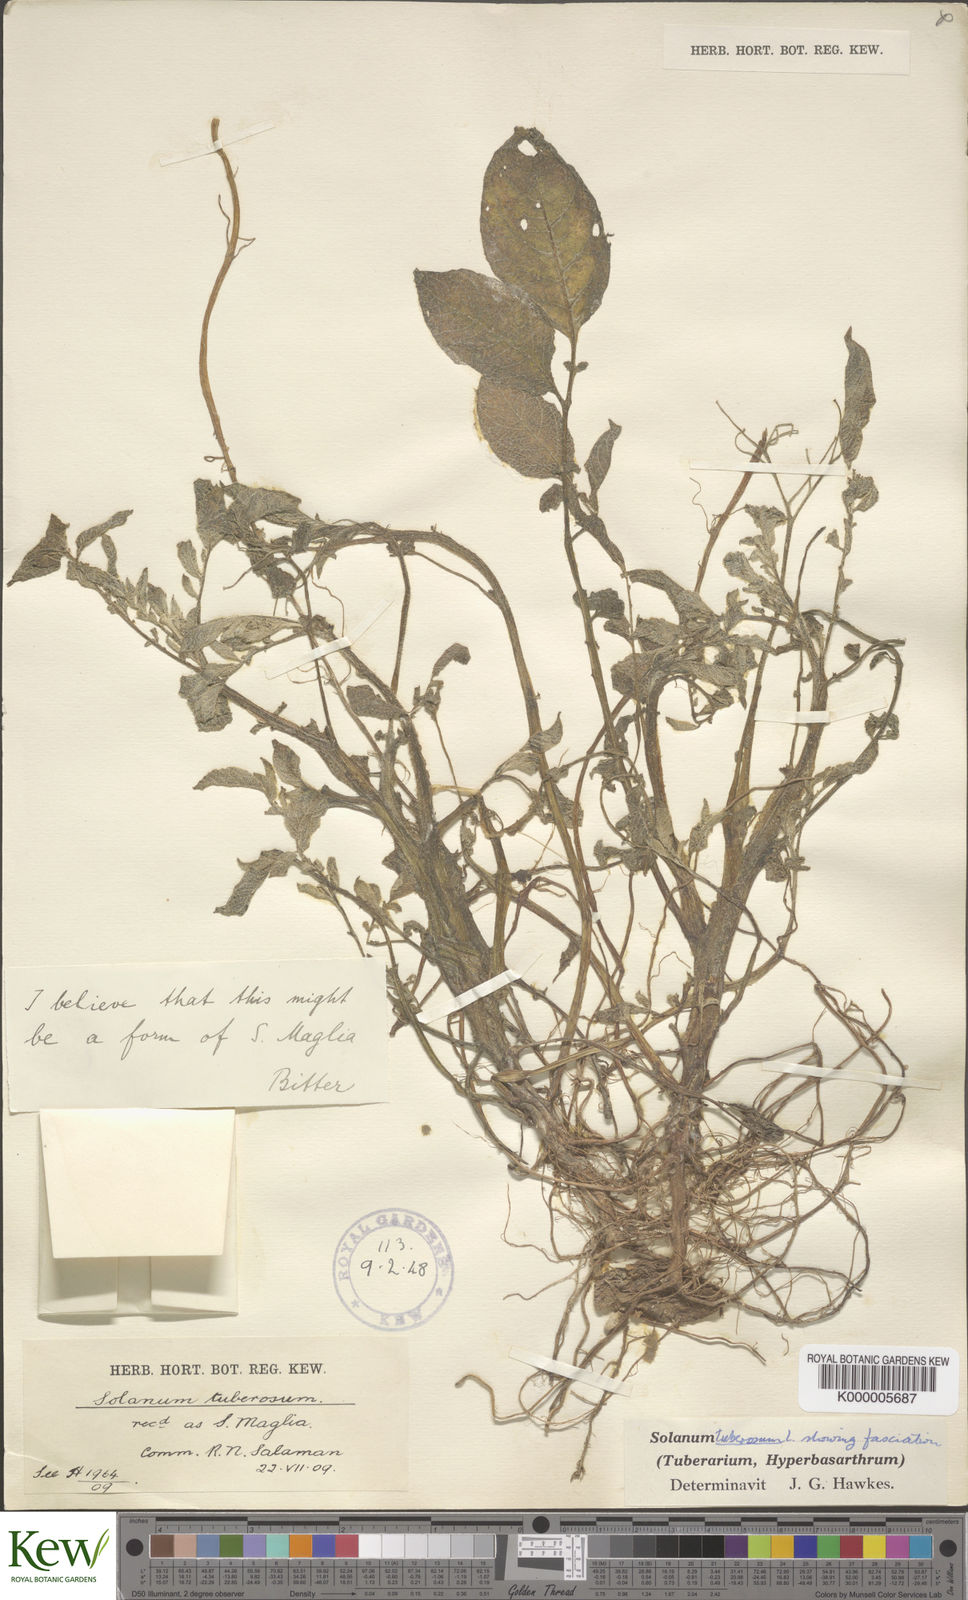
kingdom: Plantae
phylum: Tracheophyta
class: Magnoliopsida
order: Solanales
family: Solanaceae
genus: Solanum
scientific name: Solanum tuberosum
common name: Potato
